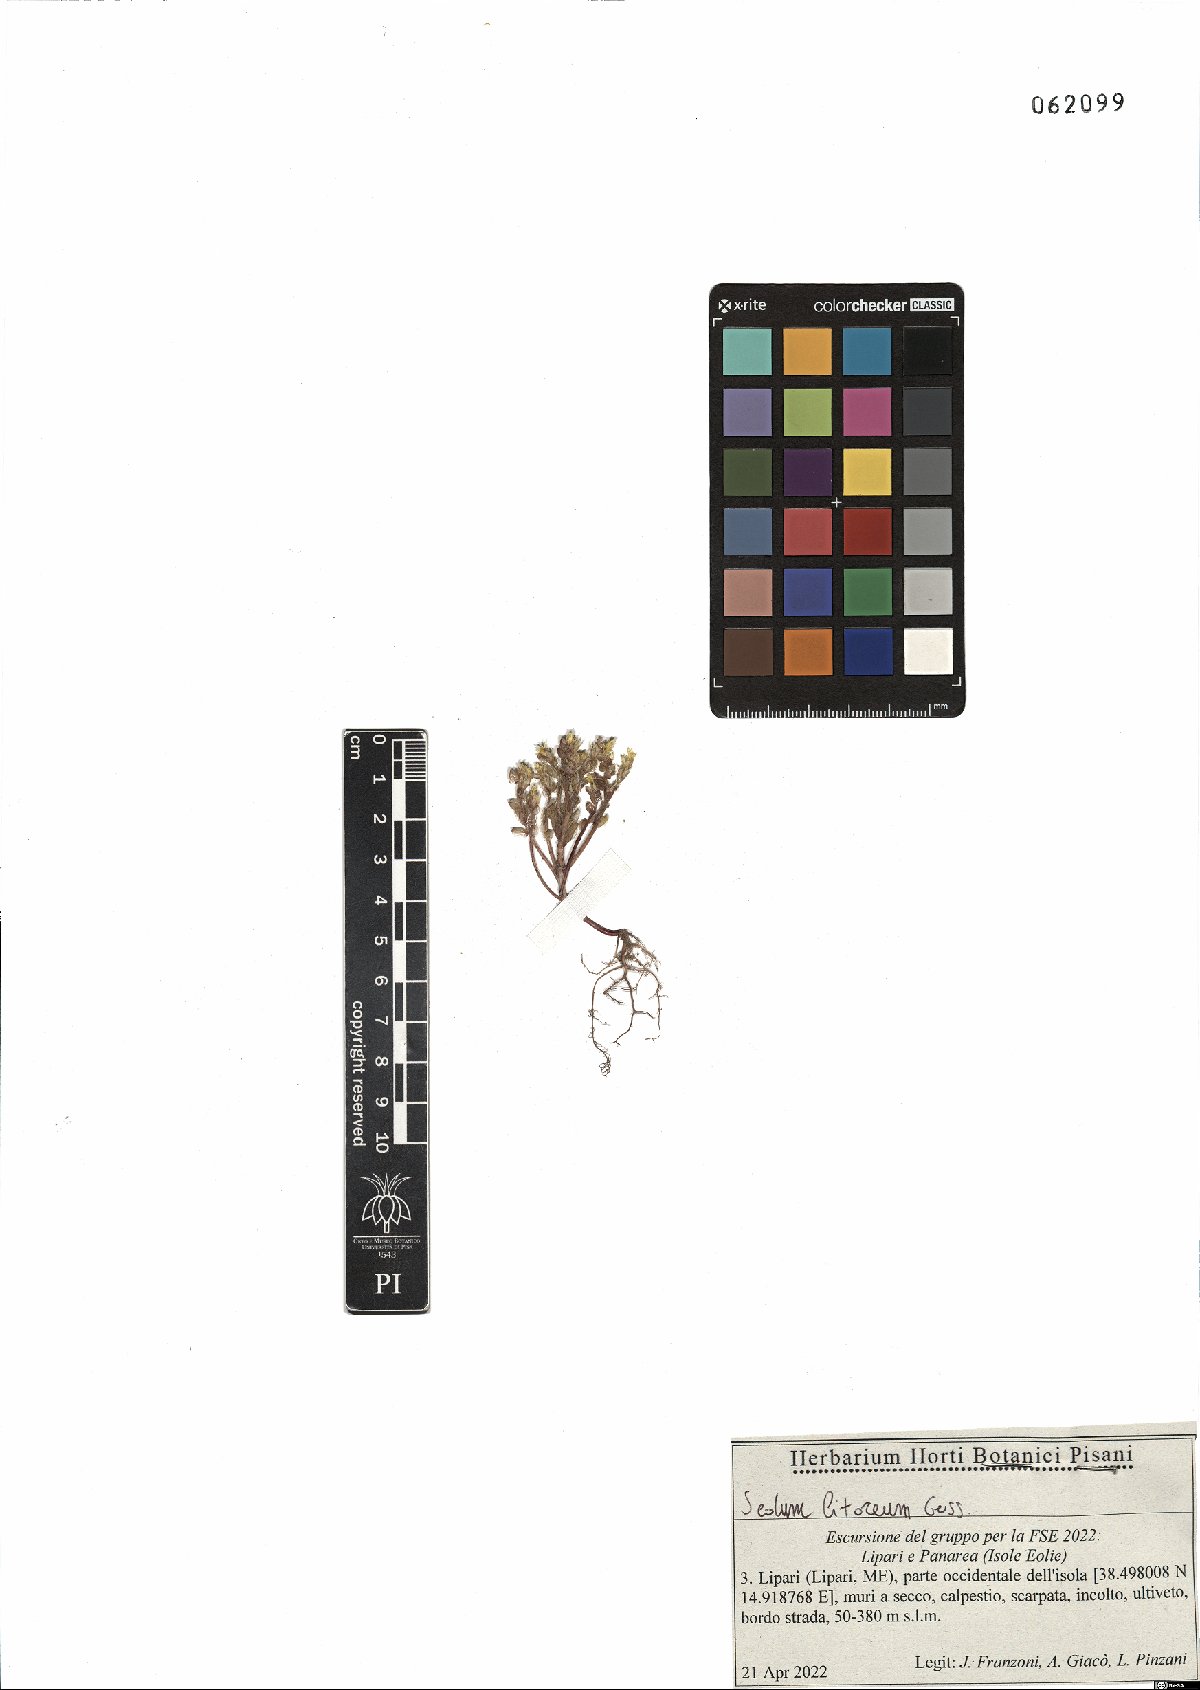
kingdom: Plantae
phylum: Tracheophyta
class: Magnoliopsida
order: Saxifragales
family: Crassulaceae
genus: Sedum
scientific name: Sedum litoreum
